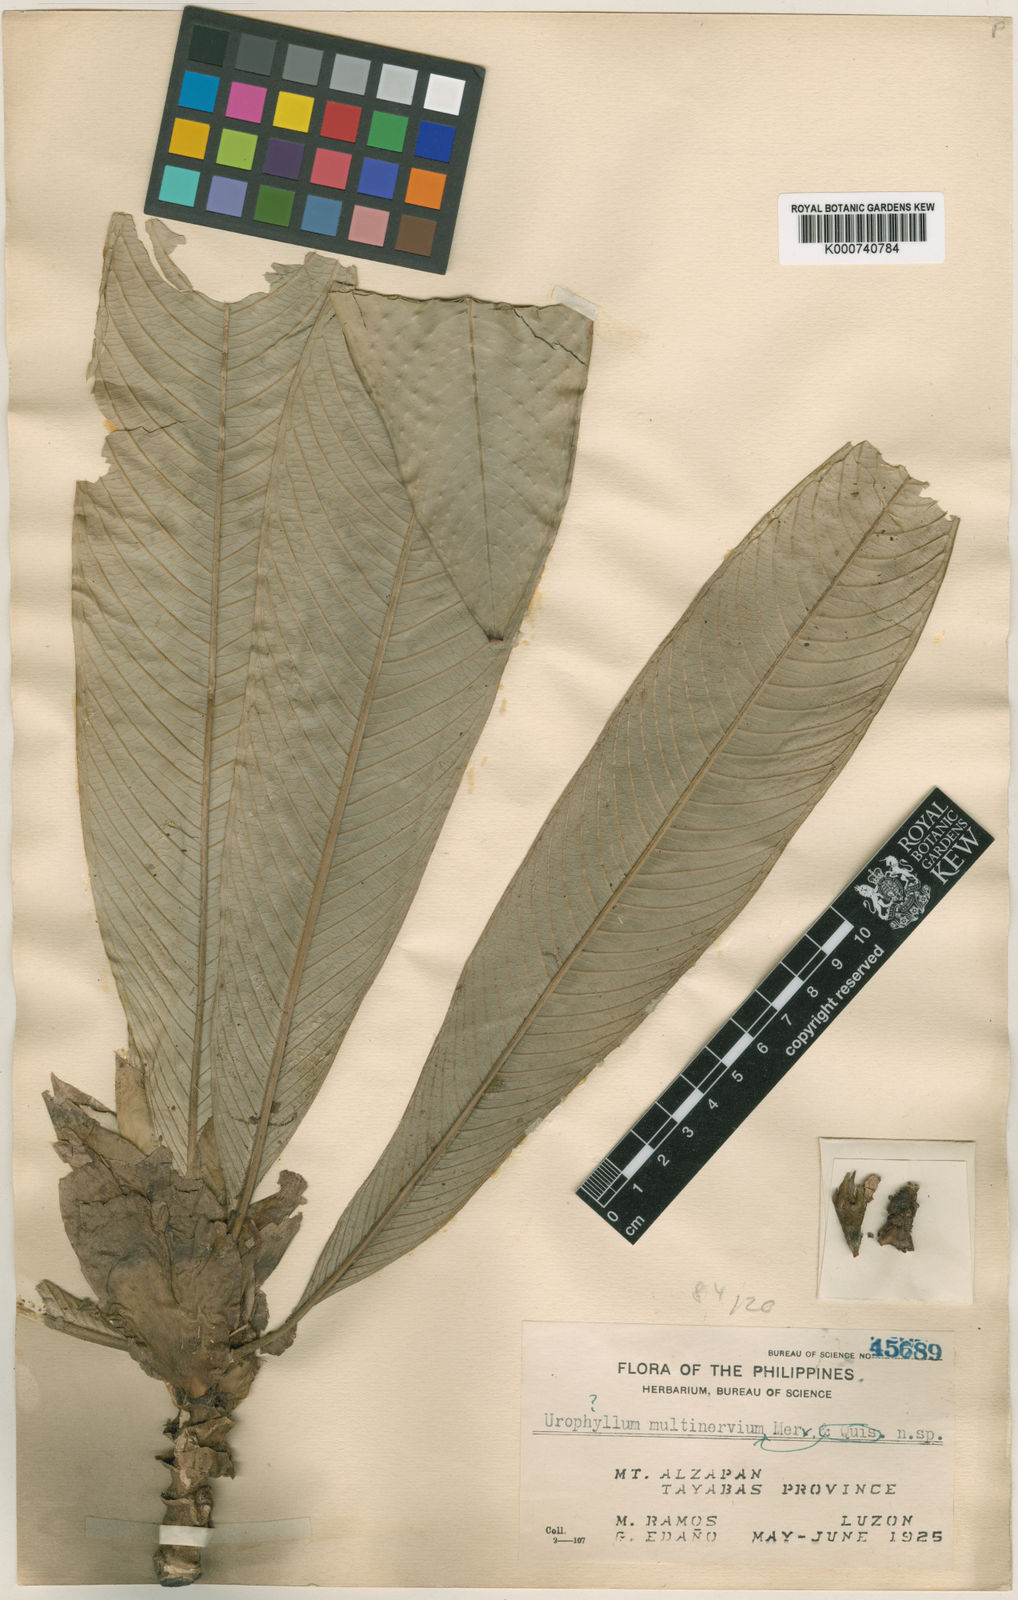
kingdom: Plantae
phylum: Tracheophyta
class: Magnoliopsida
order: Gentianales
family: Rubiaceae
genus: Praravinia
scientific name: Praravinia multinervia
